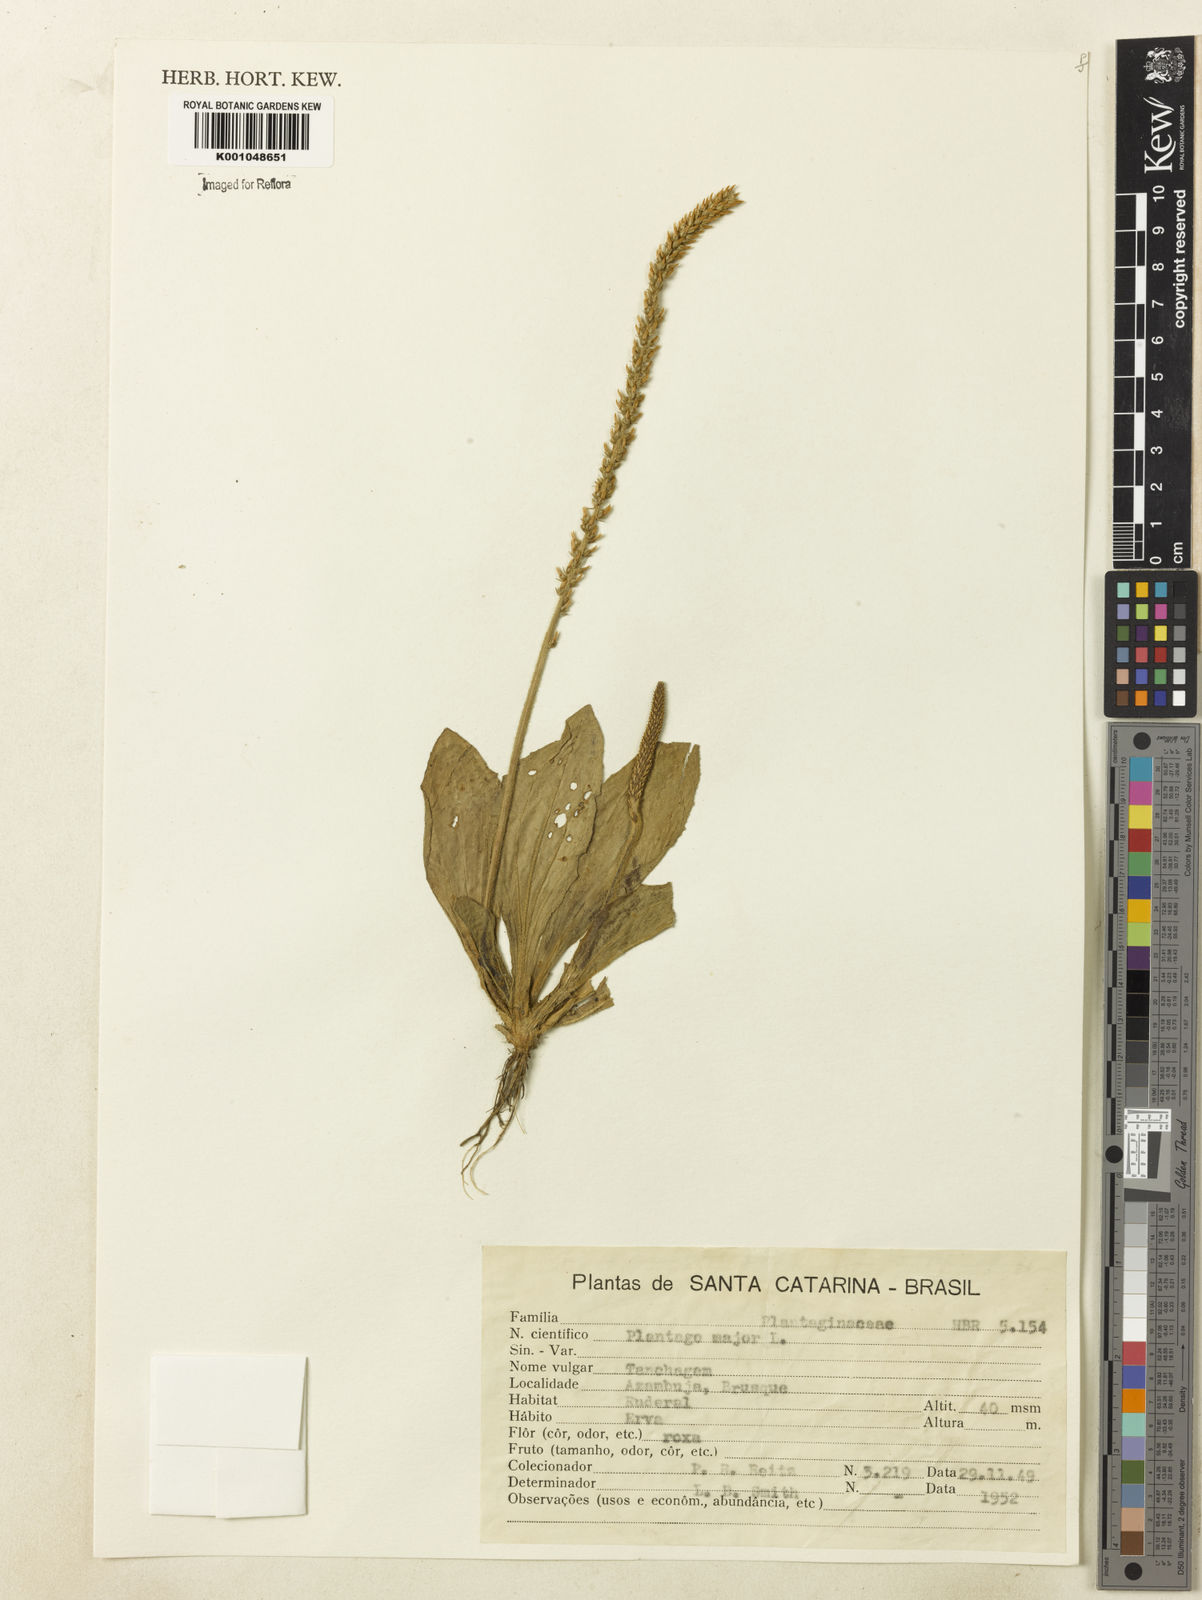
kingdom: Plantae
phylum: Tracheophyta
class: Magnoliopsida
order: Lamiales
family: Plantaginaceae
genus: Plantago
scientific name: Plantago major
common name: Common plantain
